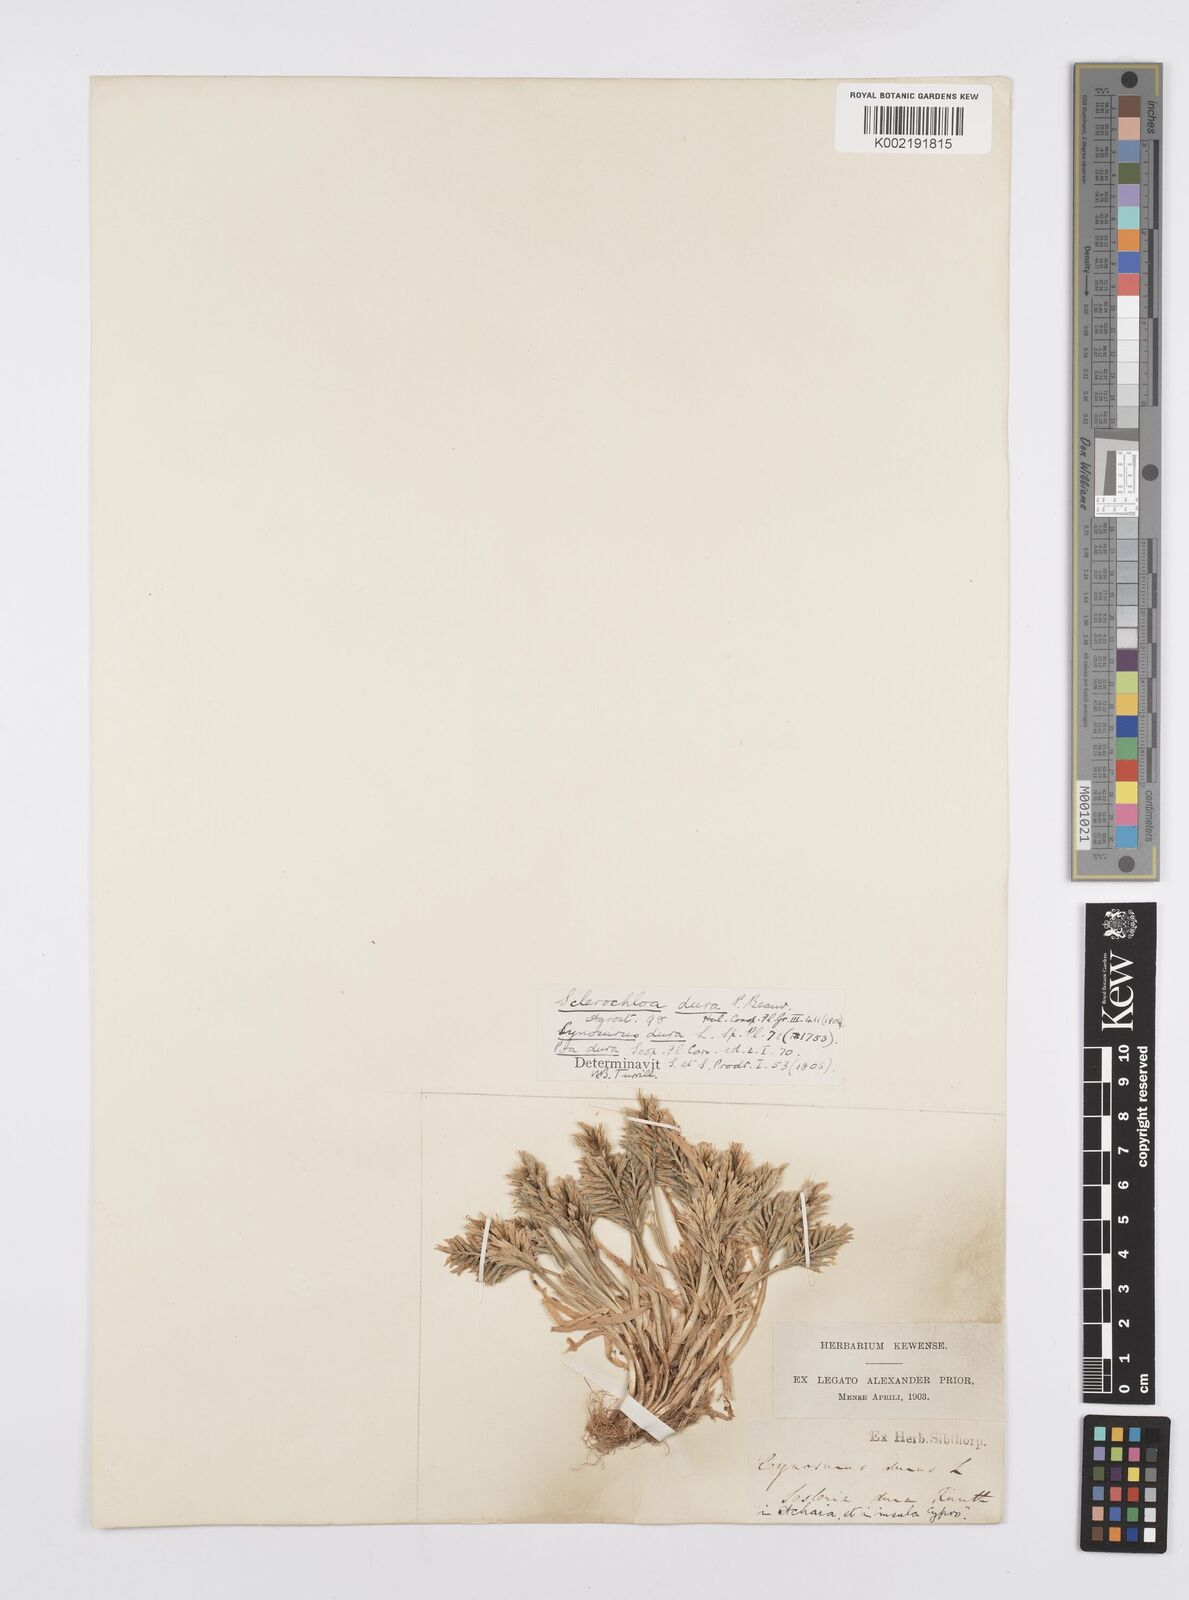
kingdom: Plantae
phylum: Tracheophyta
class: Liliopsida
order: Poales
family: Poaceae
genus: Sclerochloa
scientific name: Sclerochloa dura
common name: Common hardgrass
